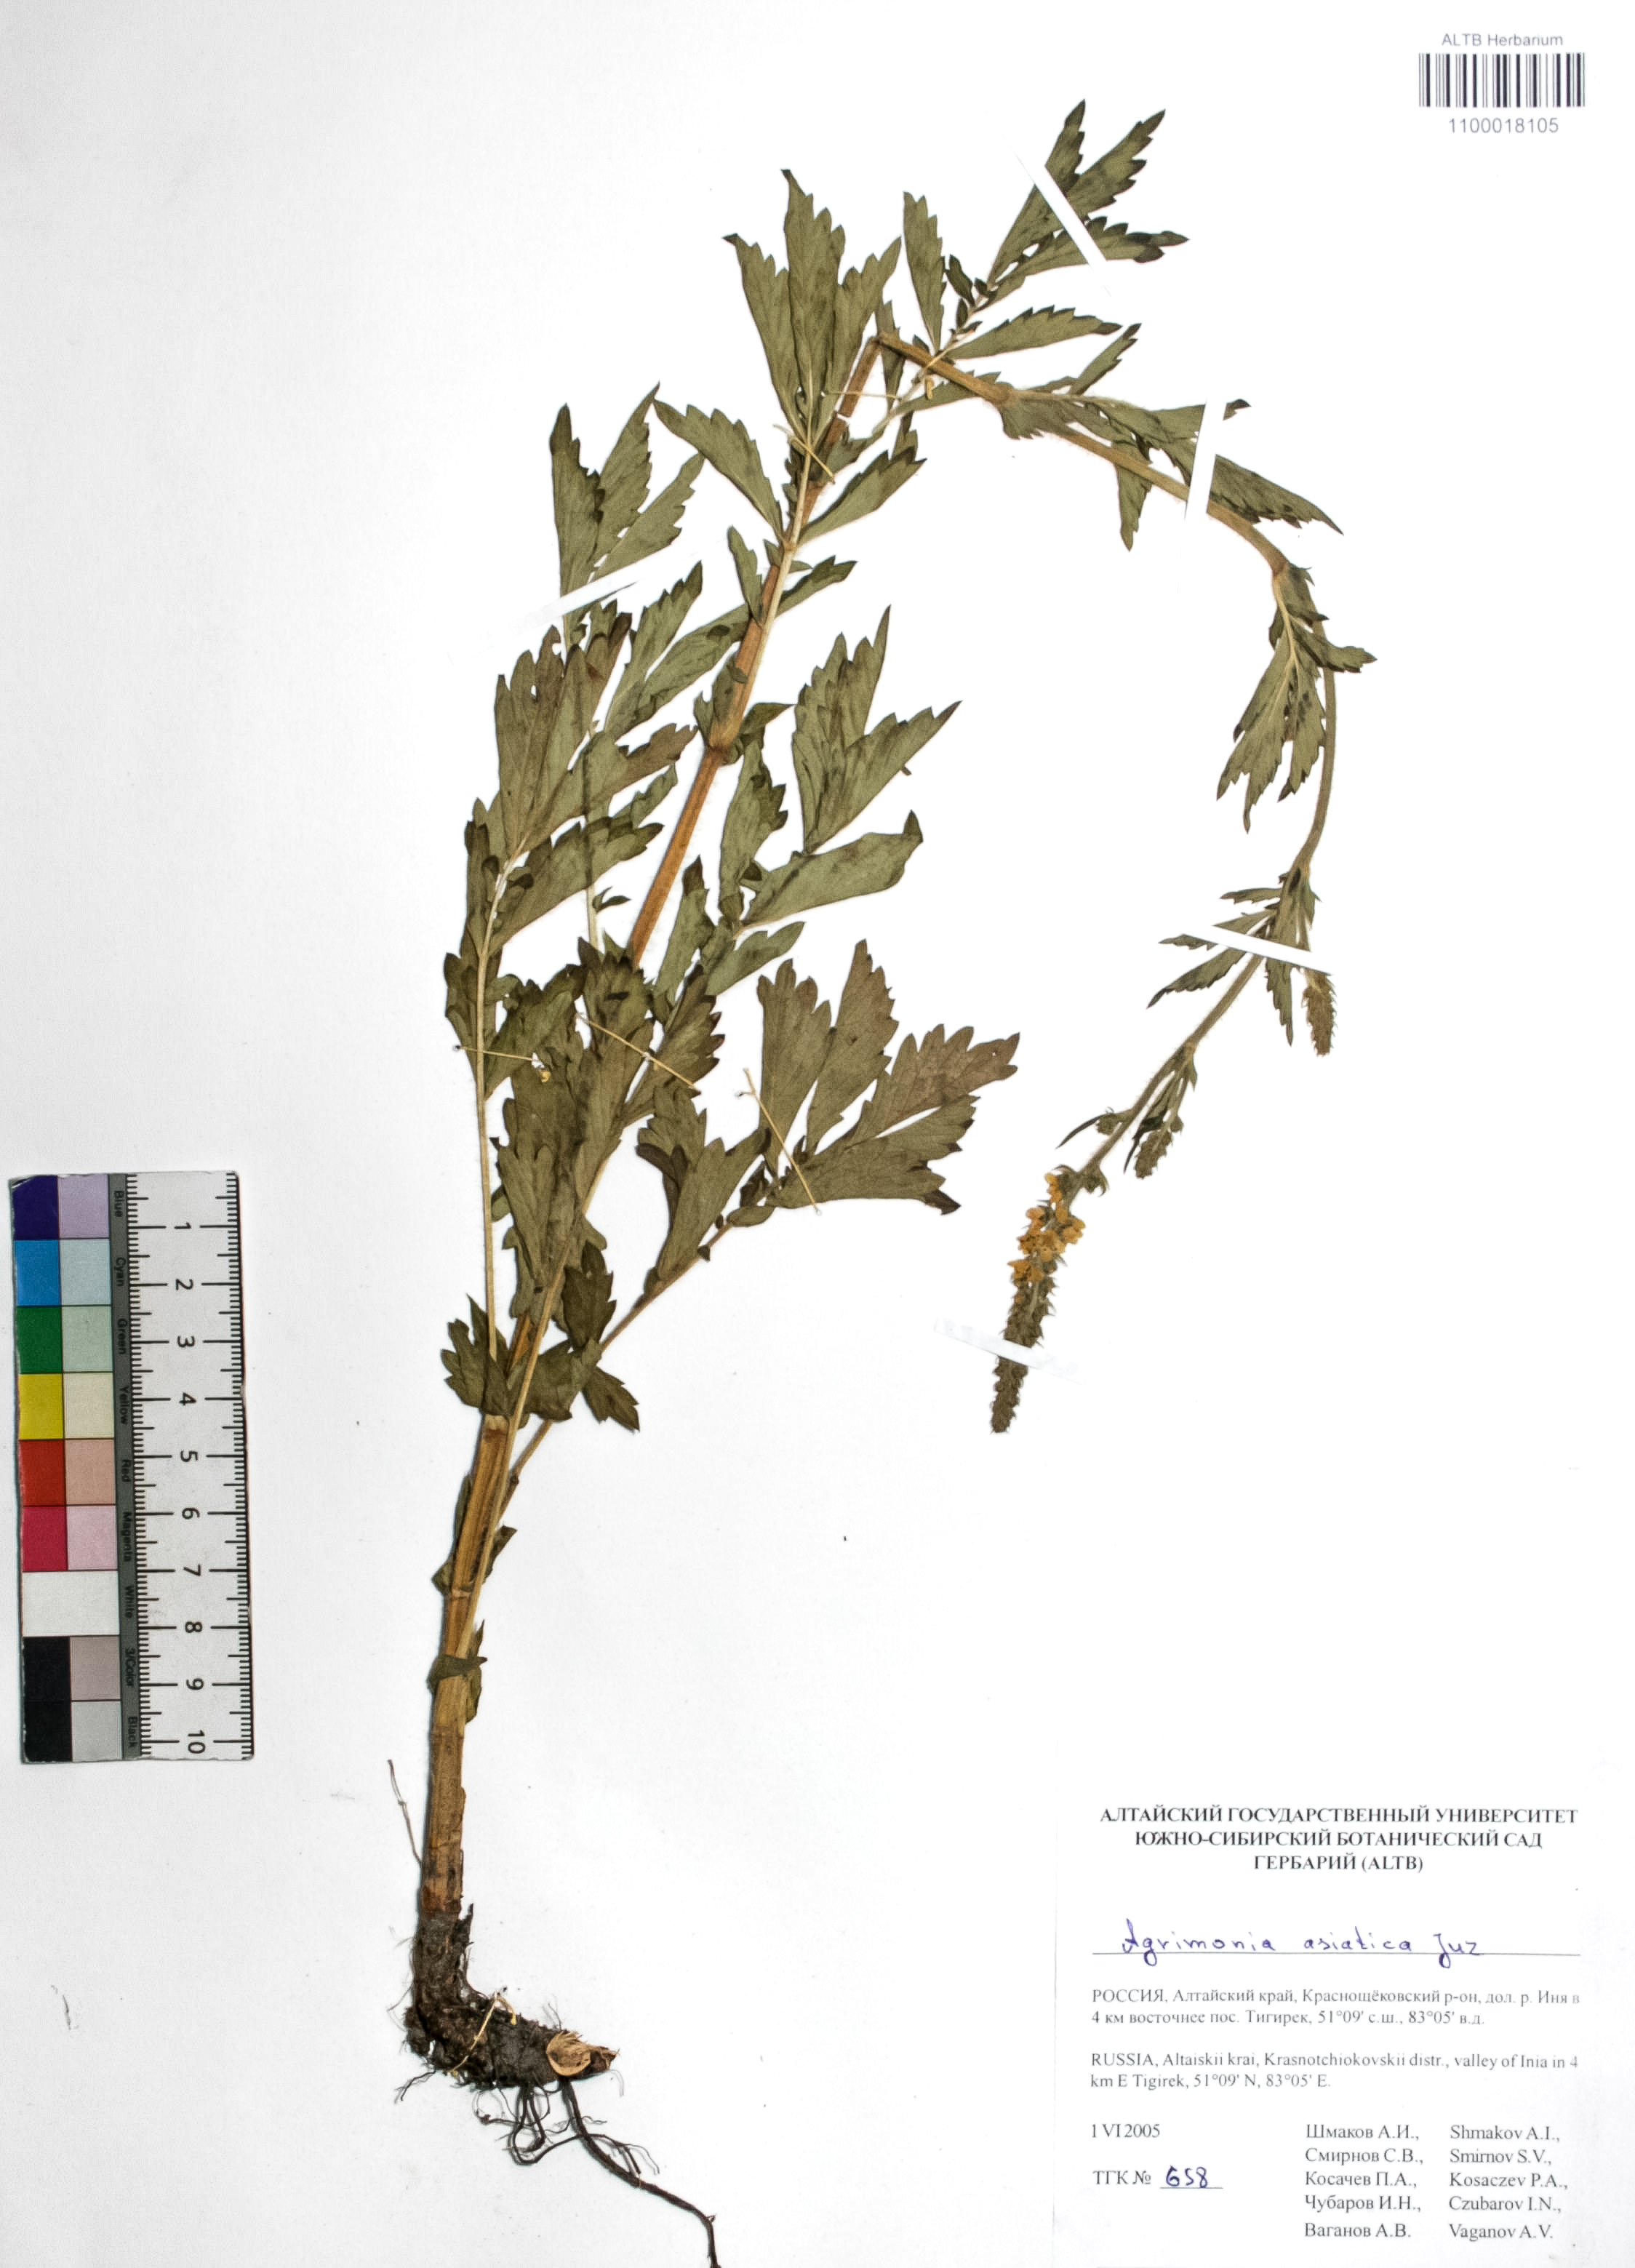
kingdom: Plantae
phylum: Tracheophyta
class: Magnoliopsida
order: Rosales
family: Rosaceae
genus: Agrimonia
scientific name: Agrimonia eupatoria
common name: Agrimony
